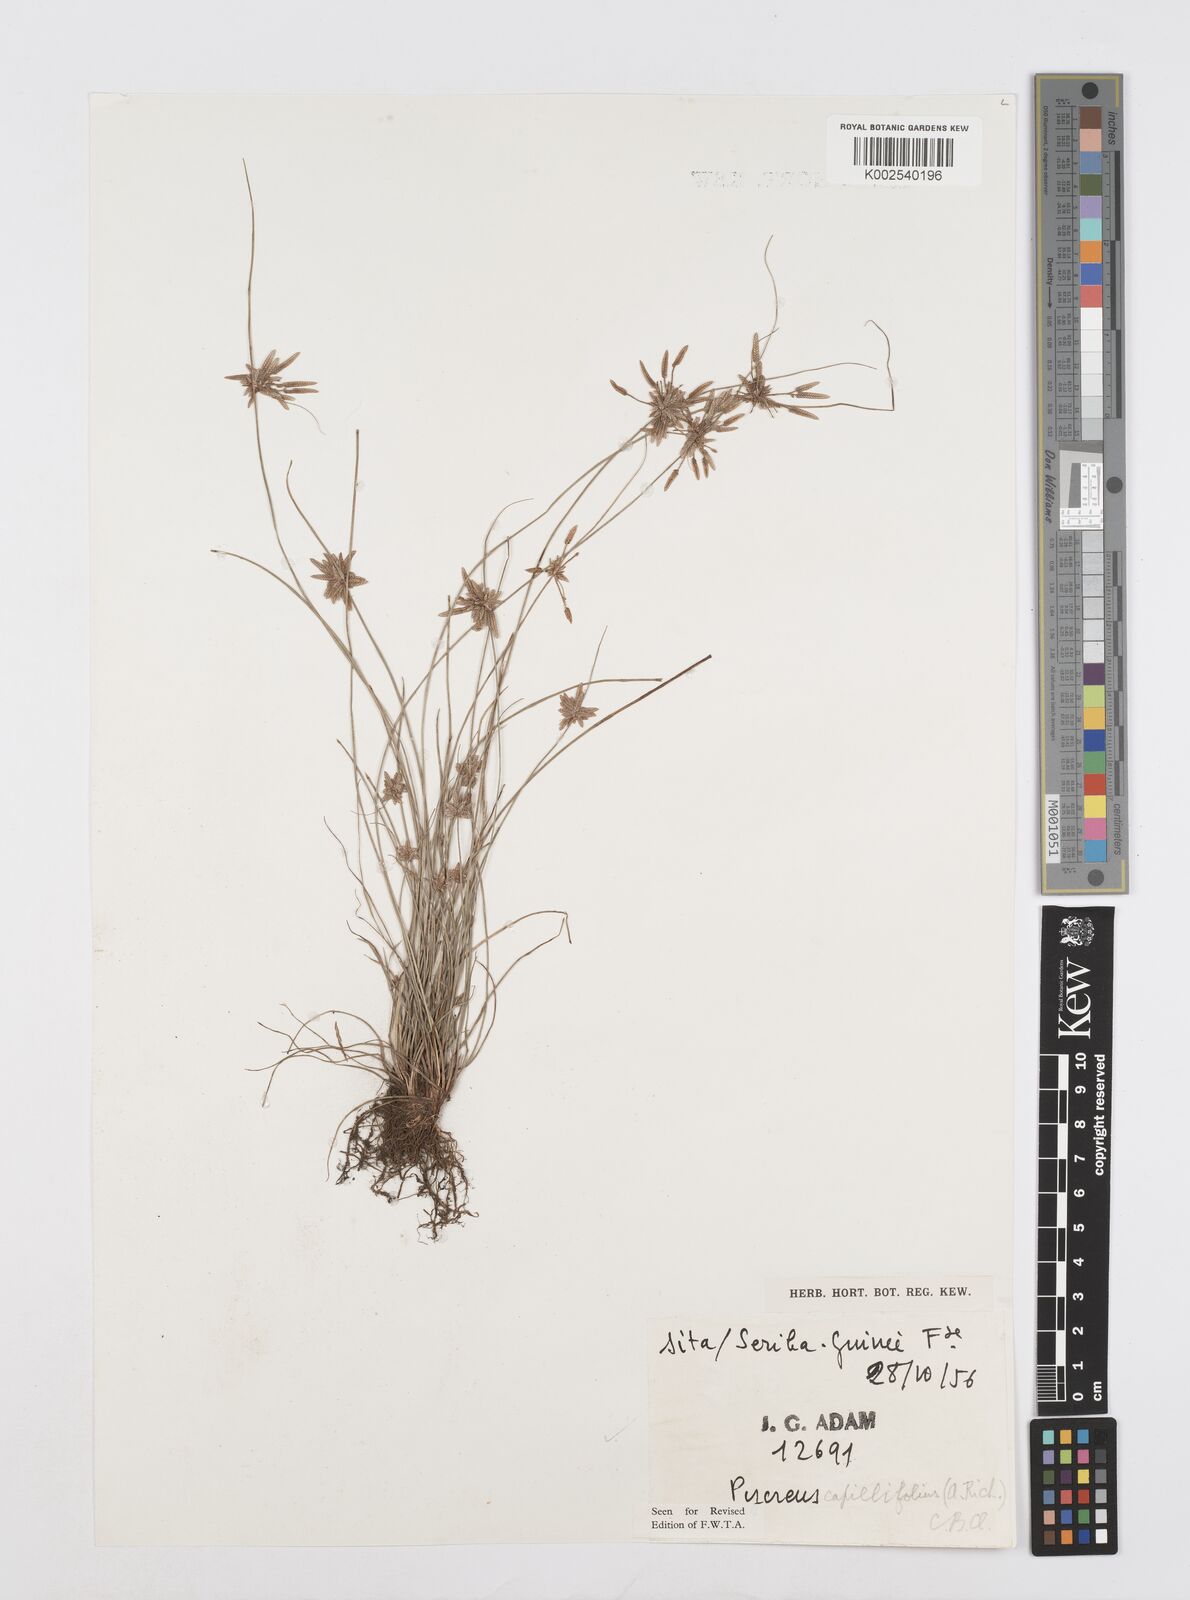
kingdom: Plantae
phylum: Tracheophyta
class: Liliopsida
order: Poales
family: Cyperaceae
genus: Cyperus
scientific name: Cyperus capillifolius
